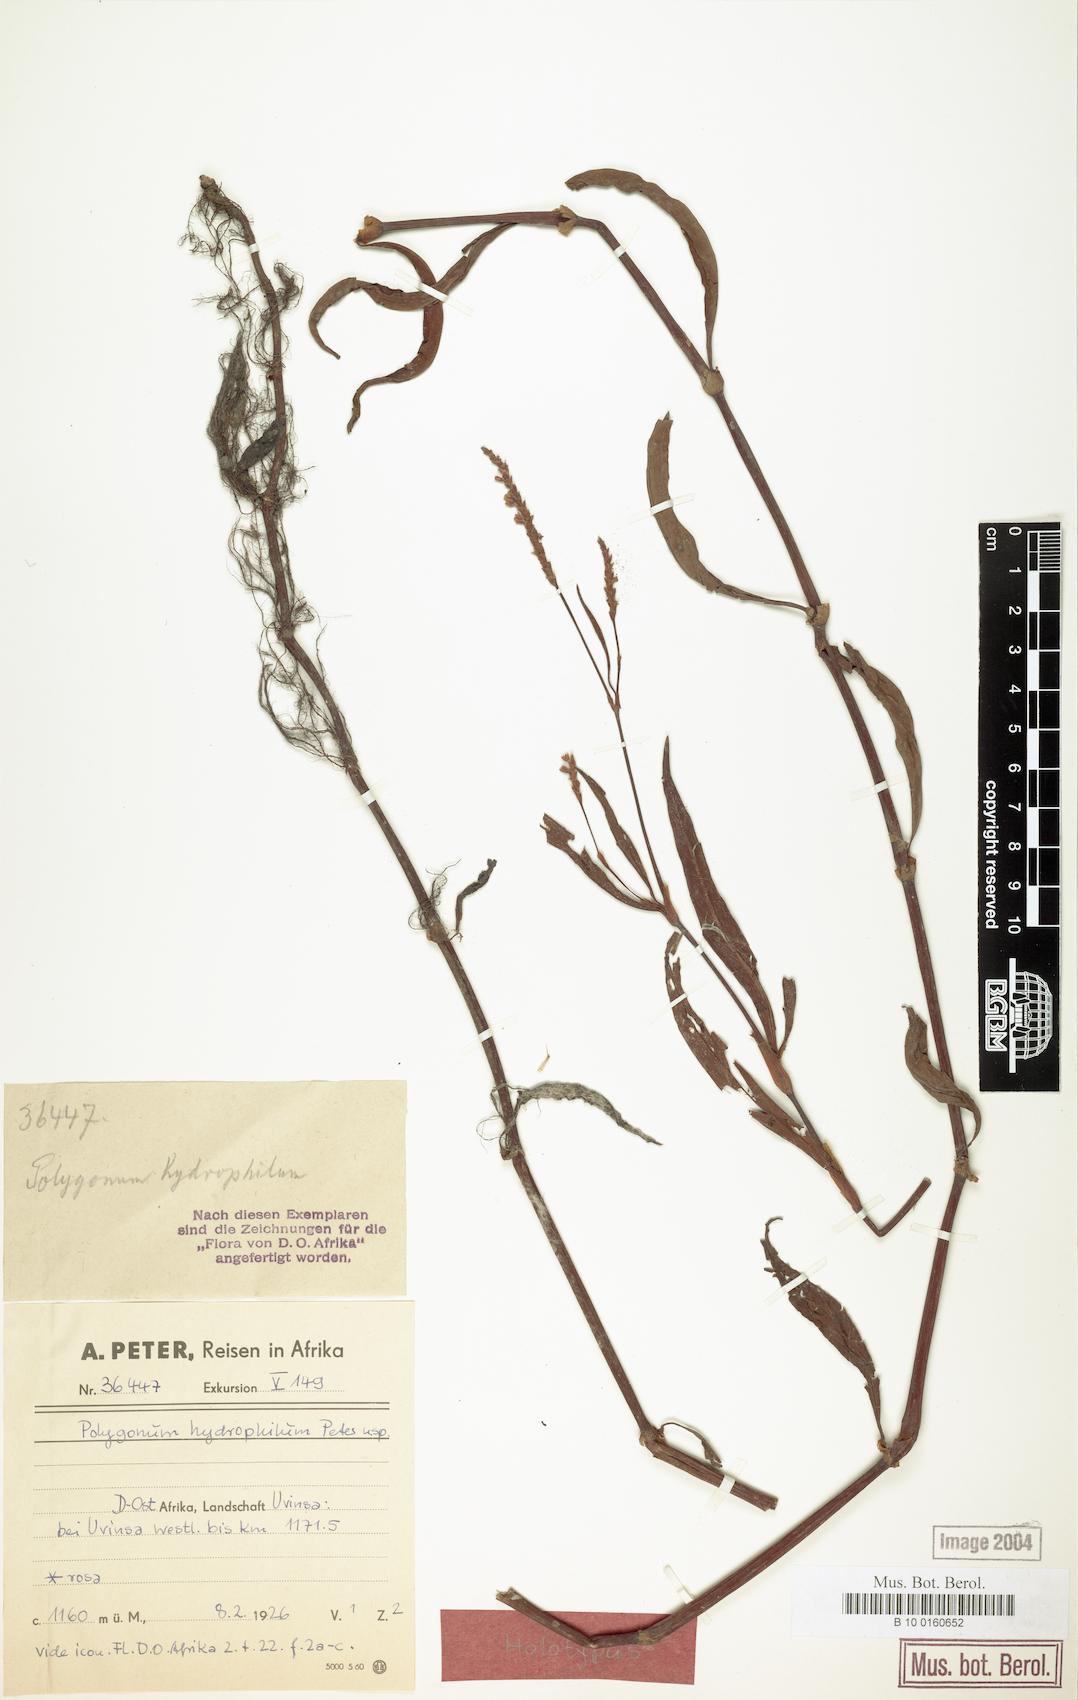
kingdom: Plantae
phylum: Tracheophyta
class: Magnoliopsida
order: Caryophyllales
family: Polygonaceae
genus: Persicaria
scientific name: Persicaria setosula
